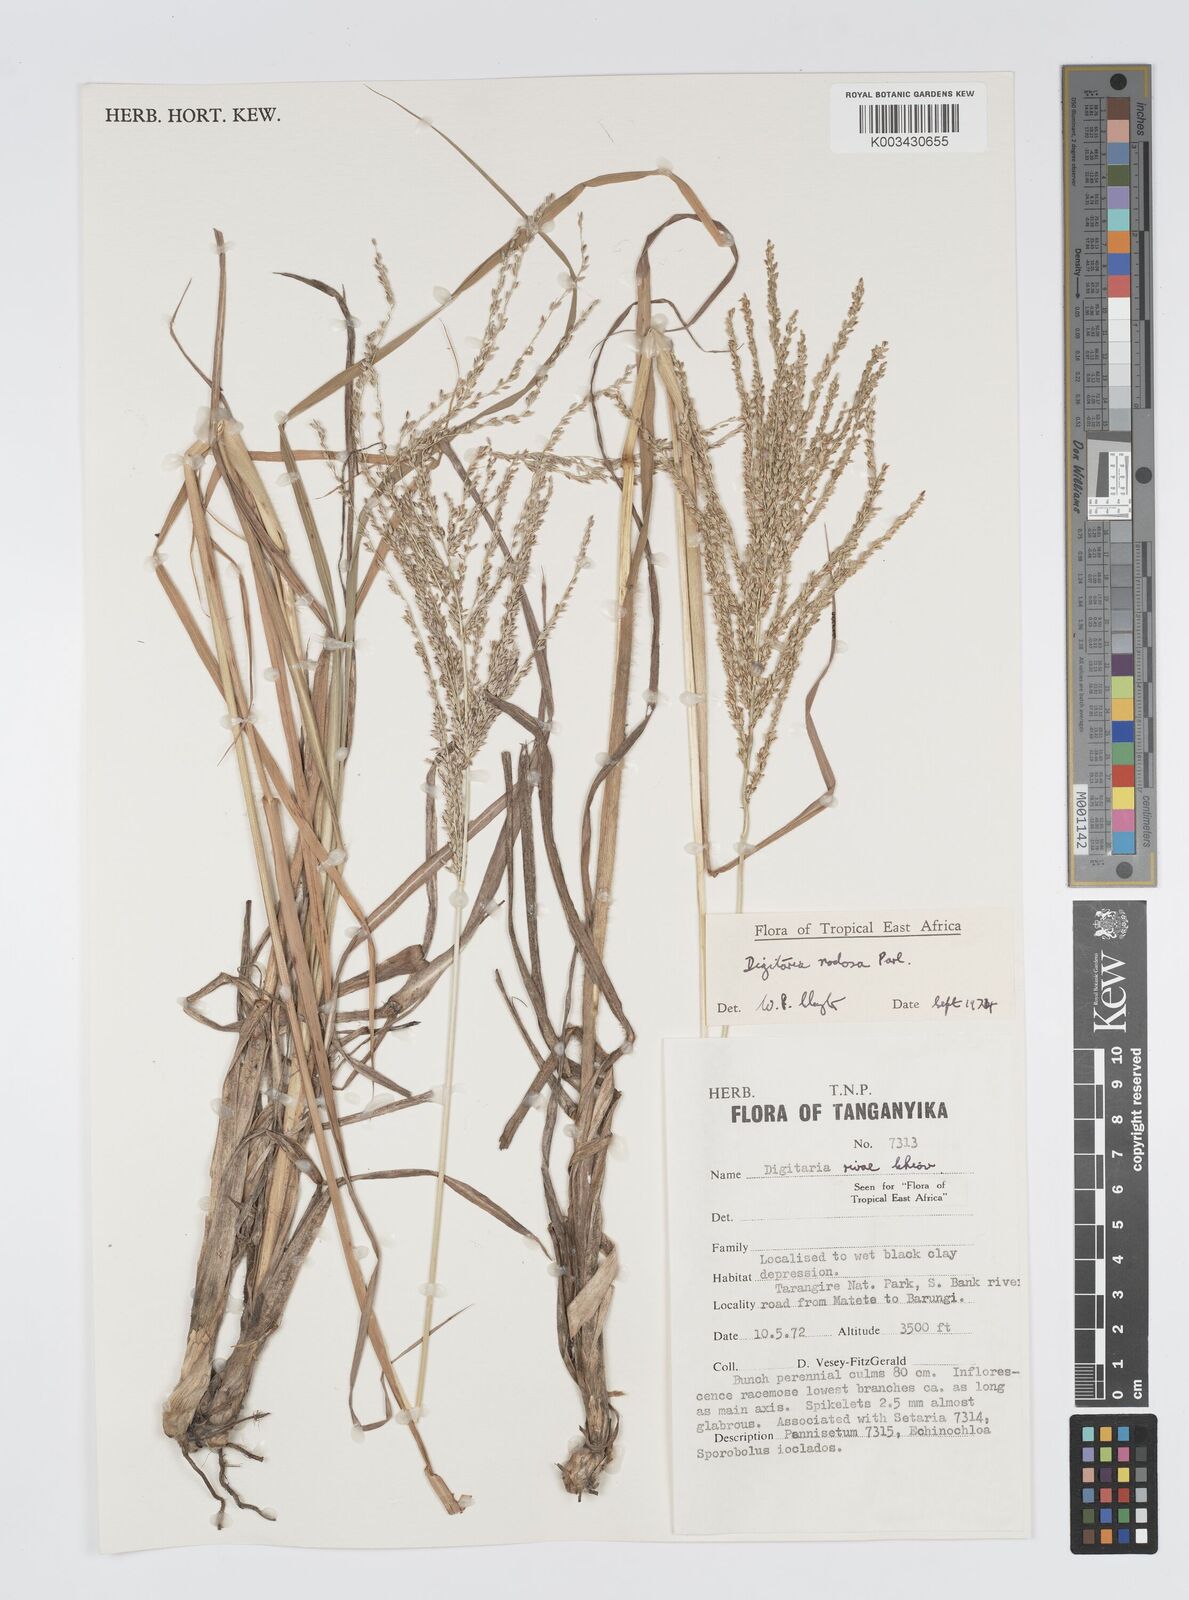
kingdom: Plantae
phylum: Tracheophyta
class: Liliopsida
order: Poales
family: Poaceae
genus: Digitaria
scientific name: Digitaria nodosa
